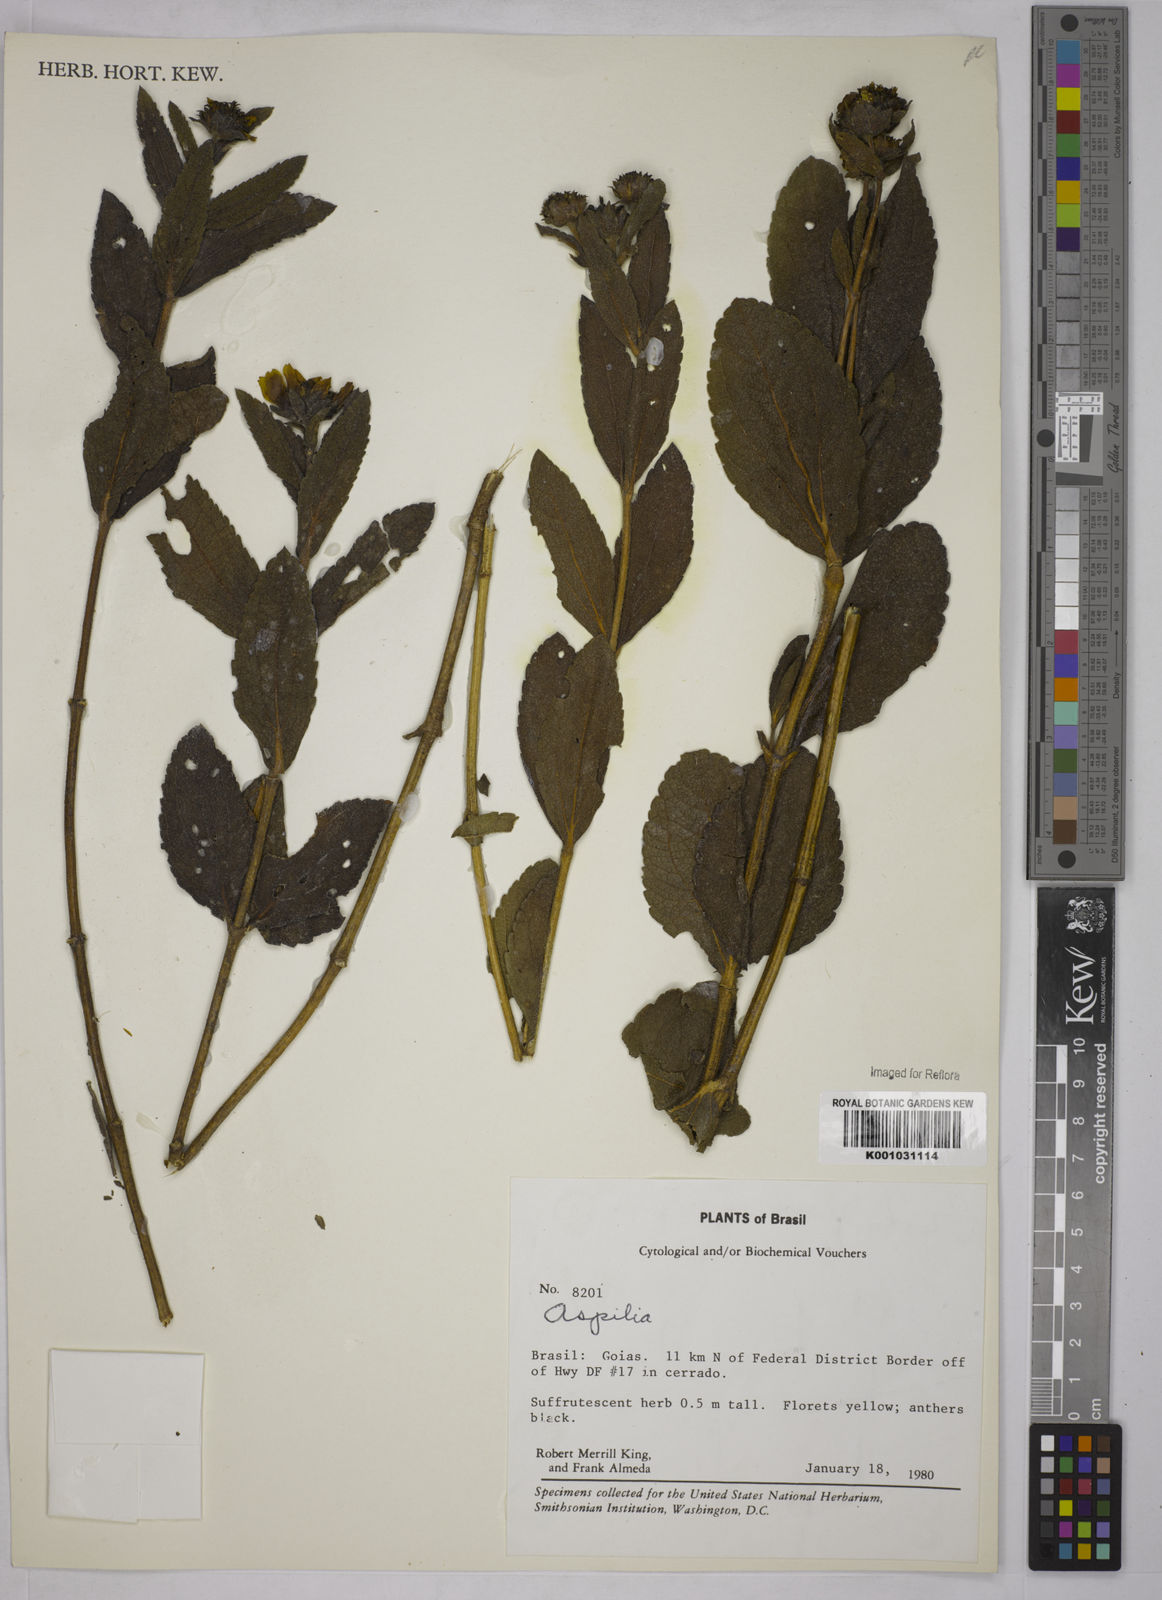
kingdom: Plantae
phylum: Tracheophyta
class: Magnoliopsida
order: Asterales
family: Asteraceae
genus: Aspilia
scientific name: Aspilia
